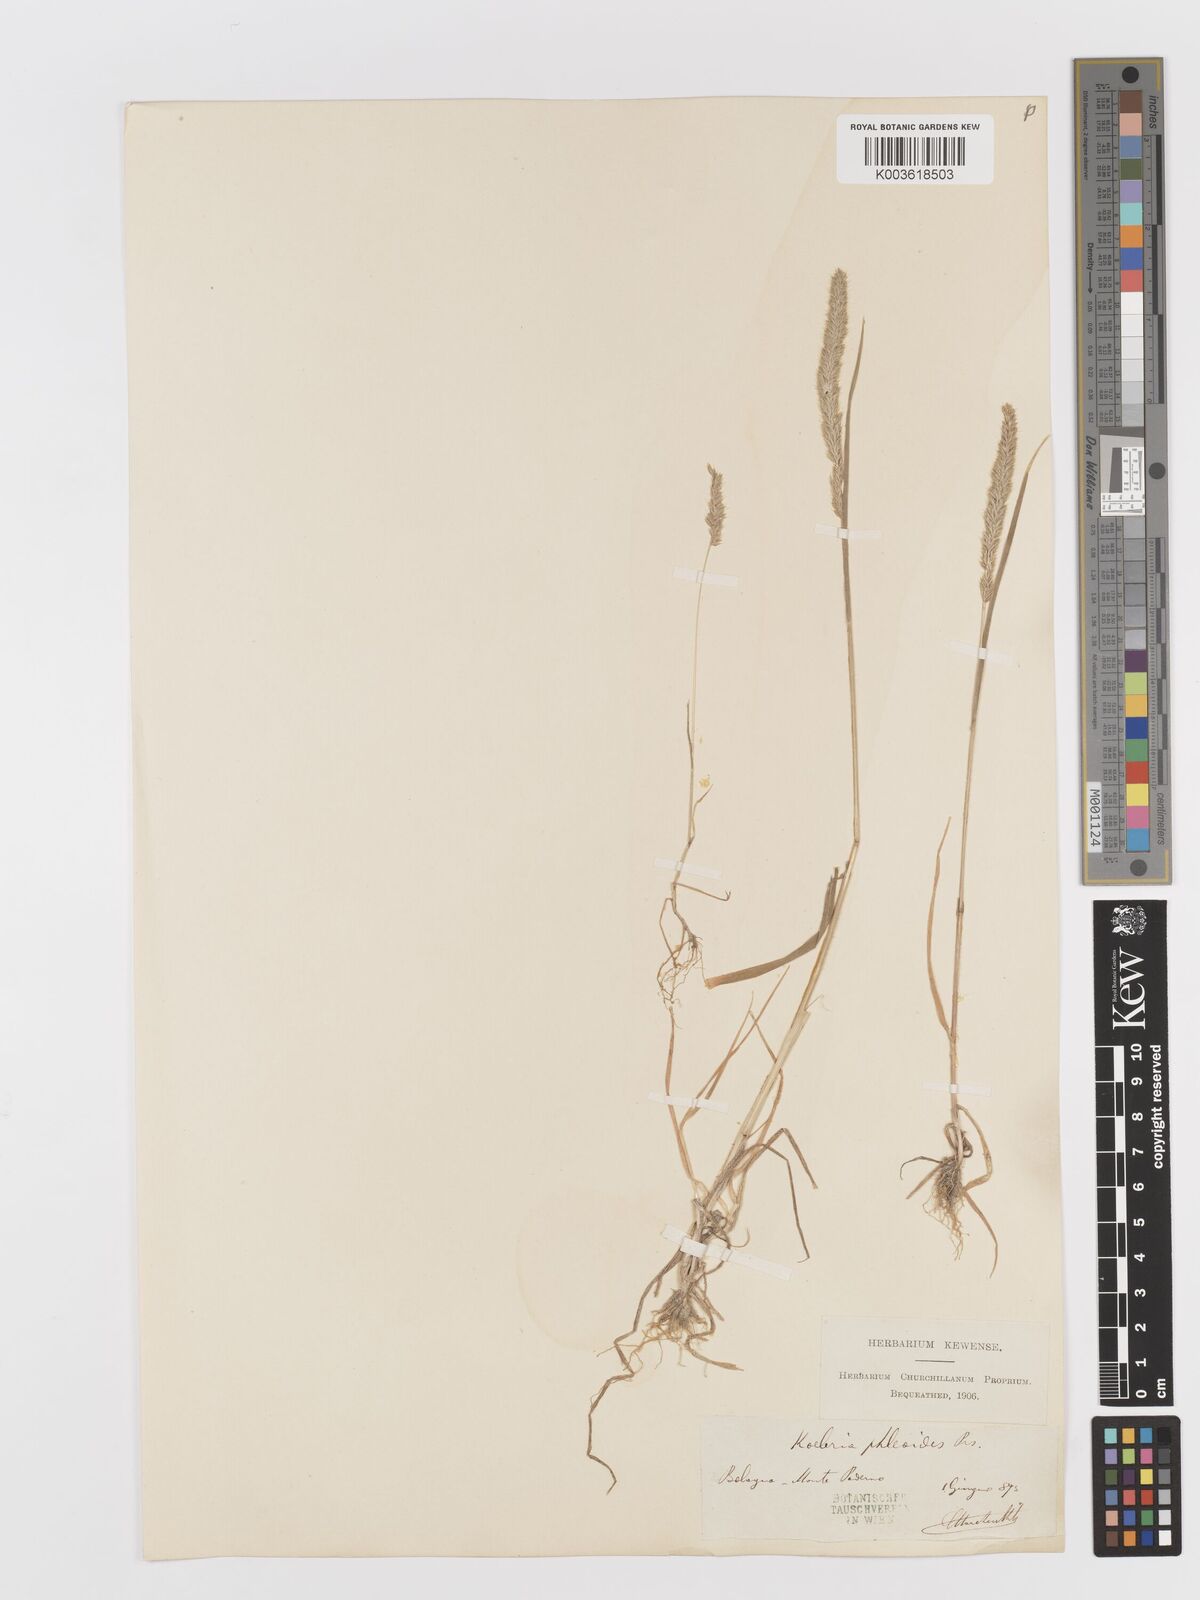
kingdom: Plantae
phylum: Tracheophyta
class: Liliopsida
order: Poales
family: Poaceae
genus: Rostraria
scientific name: Rostraria cristata
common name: Mediterranean hair-grass
